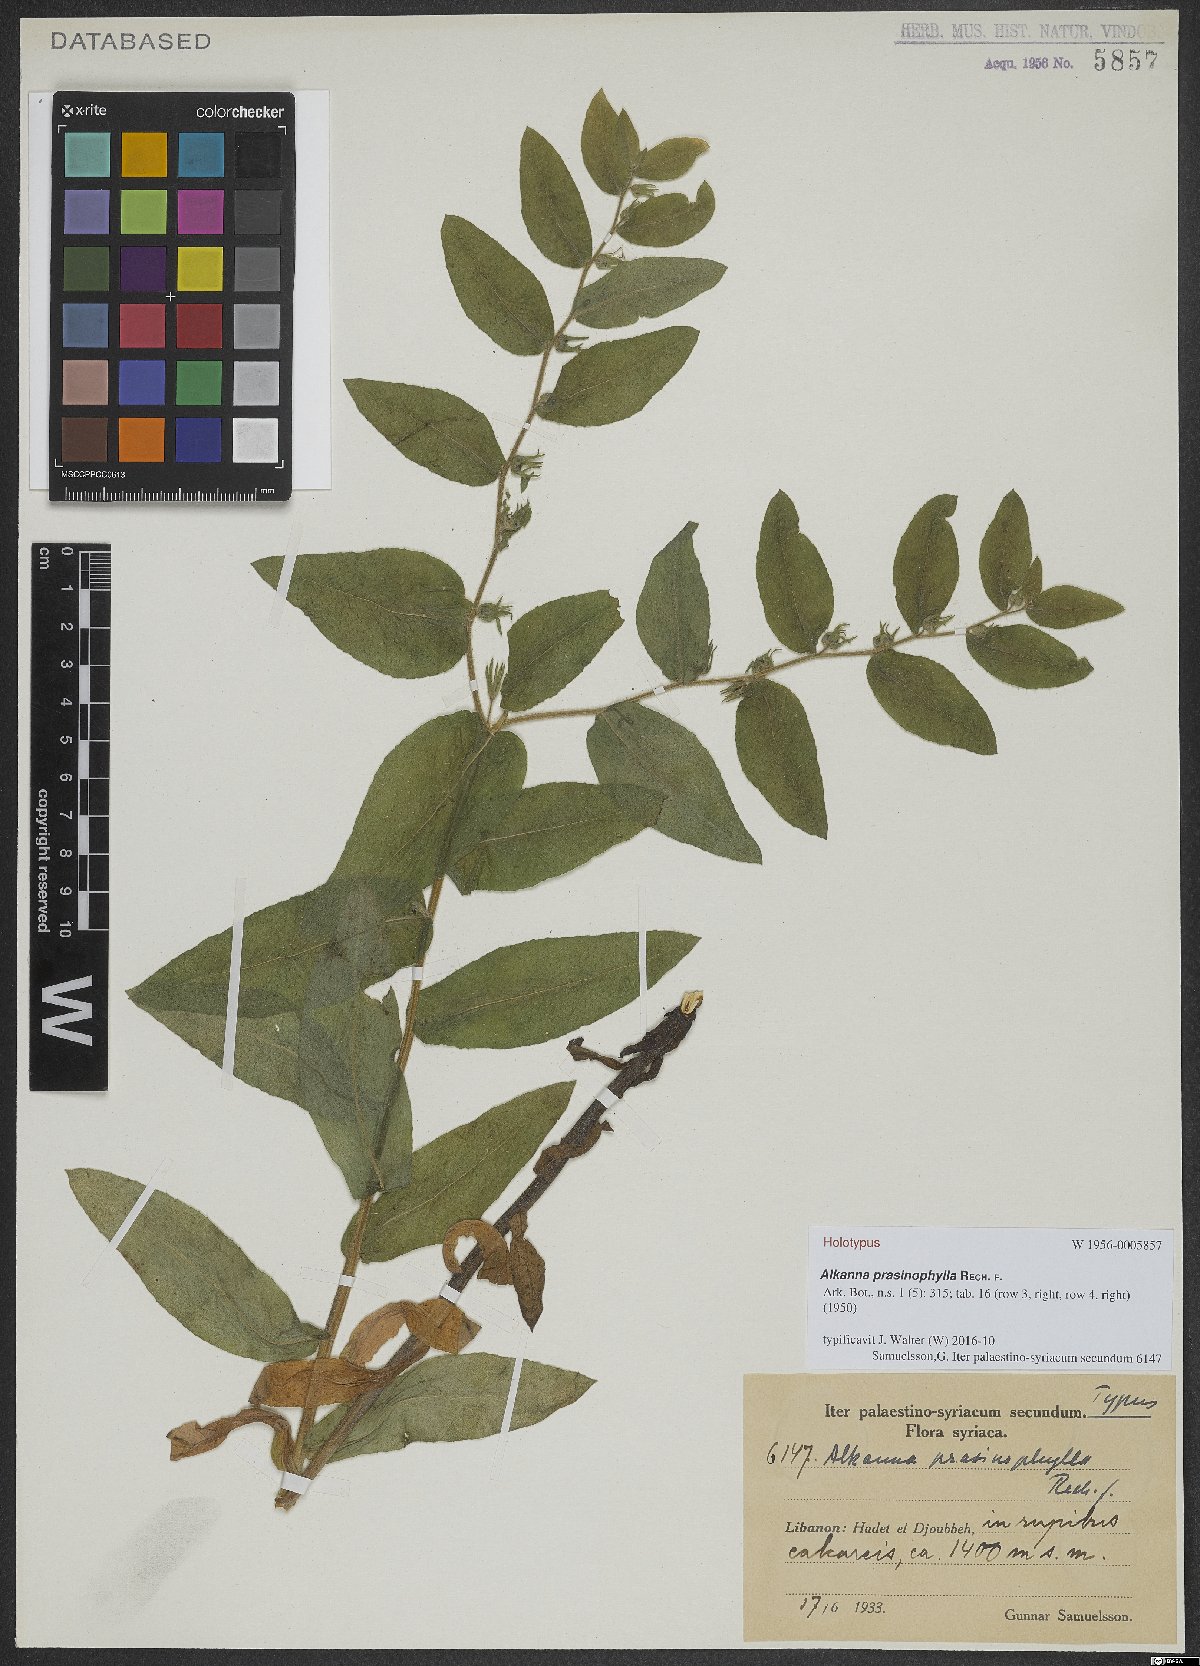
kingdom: Plantae
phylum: Tracheophyta
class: Magnoliopsida
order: Boraginales
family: Boraginaceae
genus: Alkanna
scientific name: Alkanna prasinophylla
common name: Green-leaved alkanet
